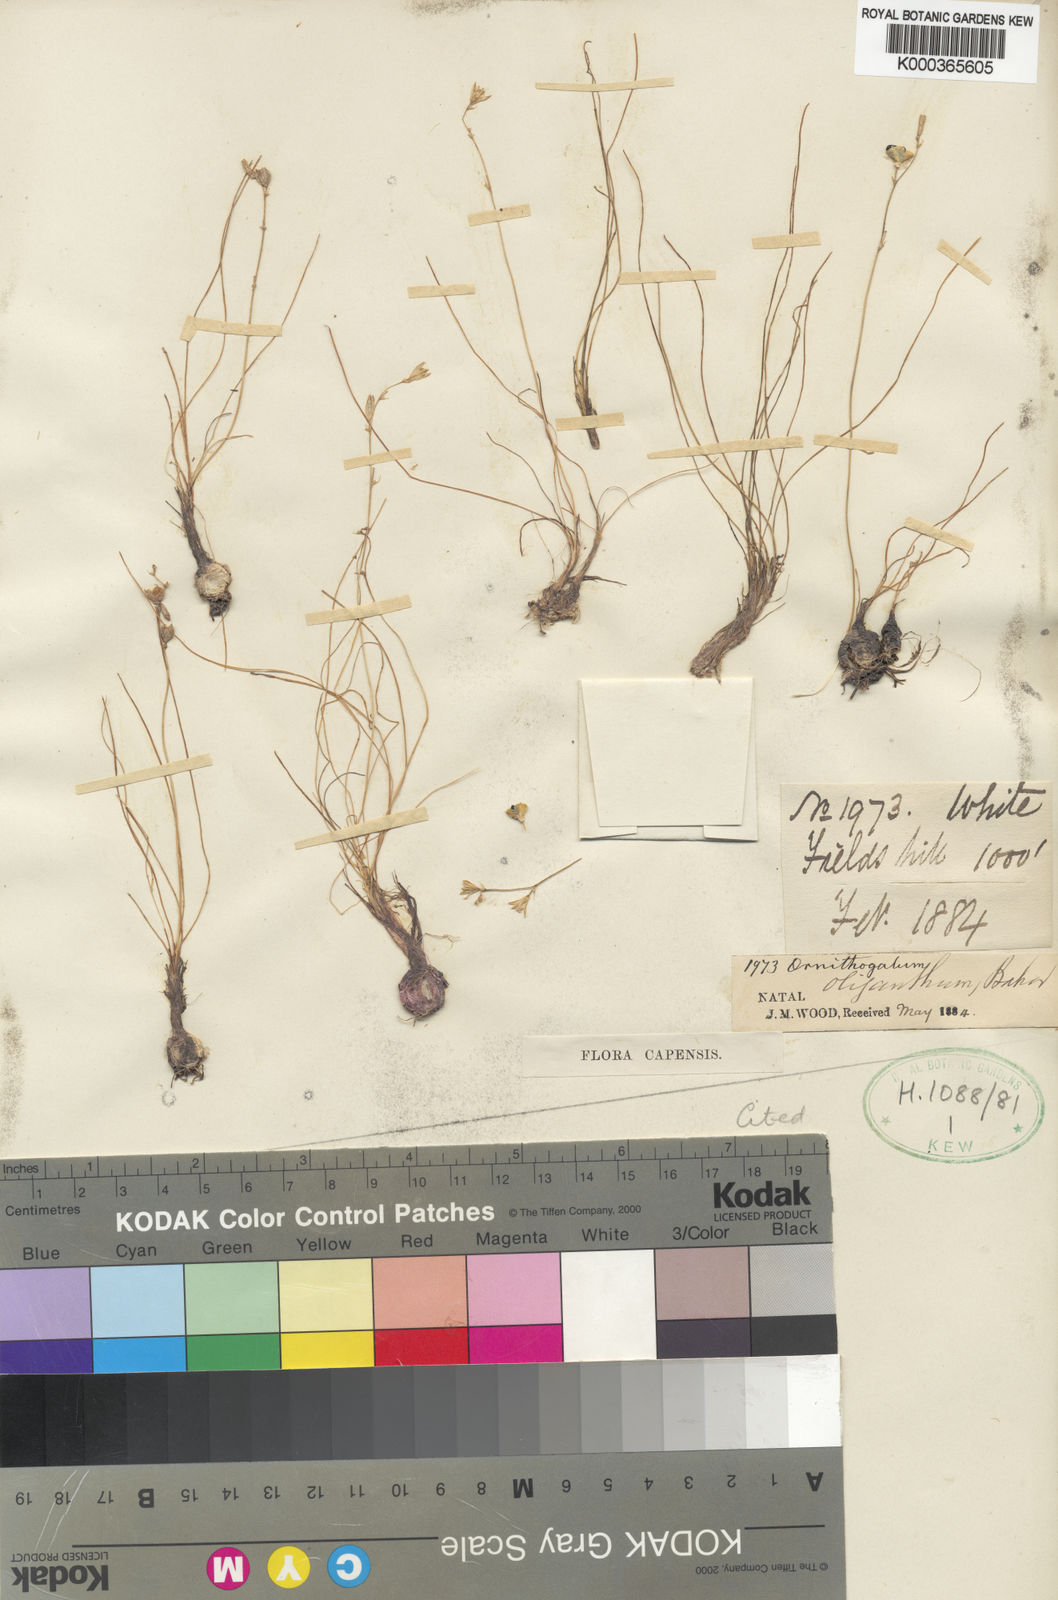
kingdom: Plantae
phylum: Tracheophyta
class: Liliopsida
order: Asparagales
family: Asparagaceae
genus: Ornithogalum
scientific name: Ornithogalum juncifolium
